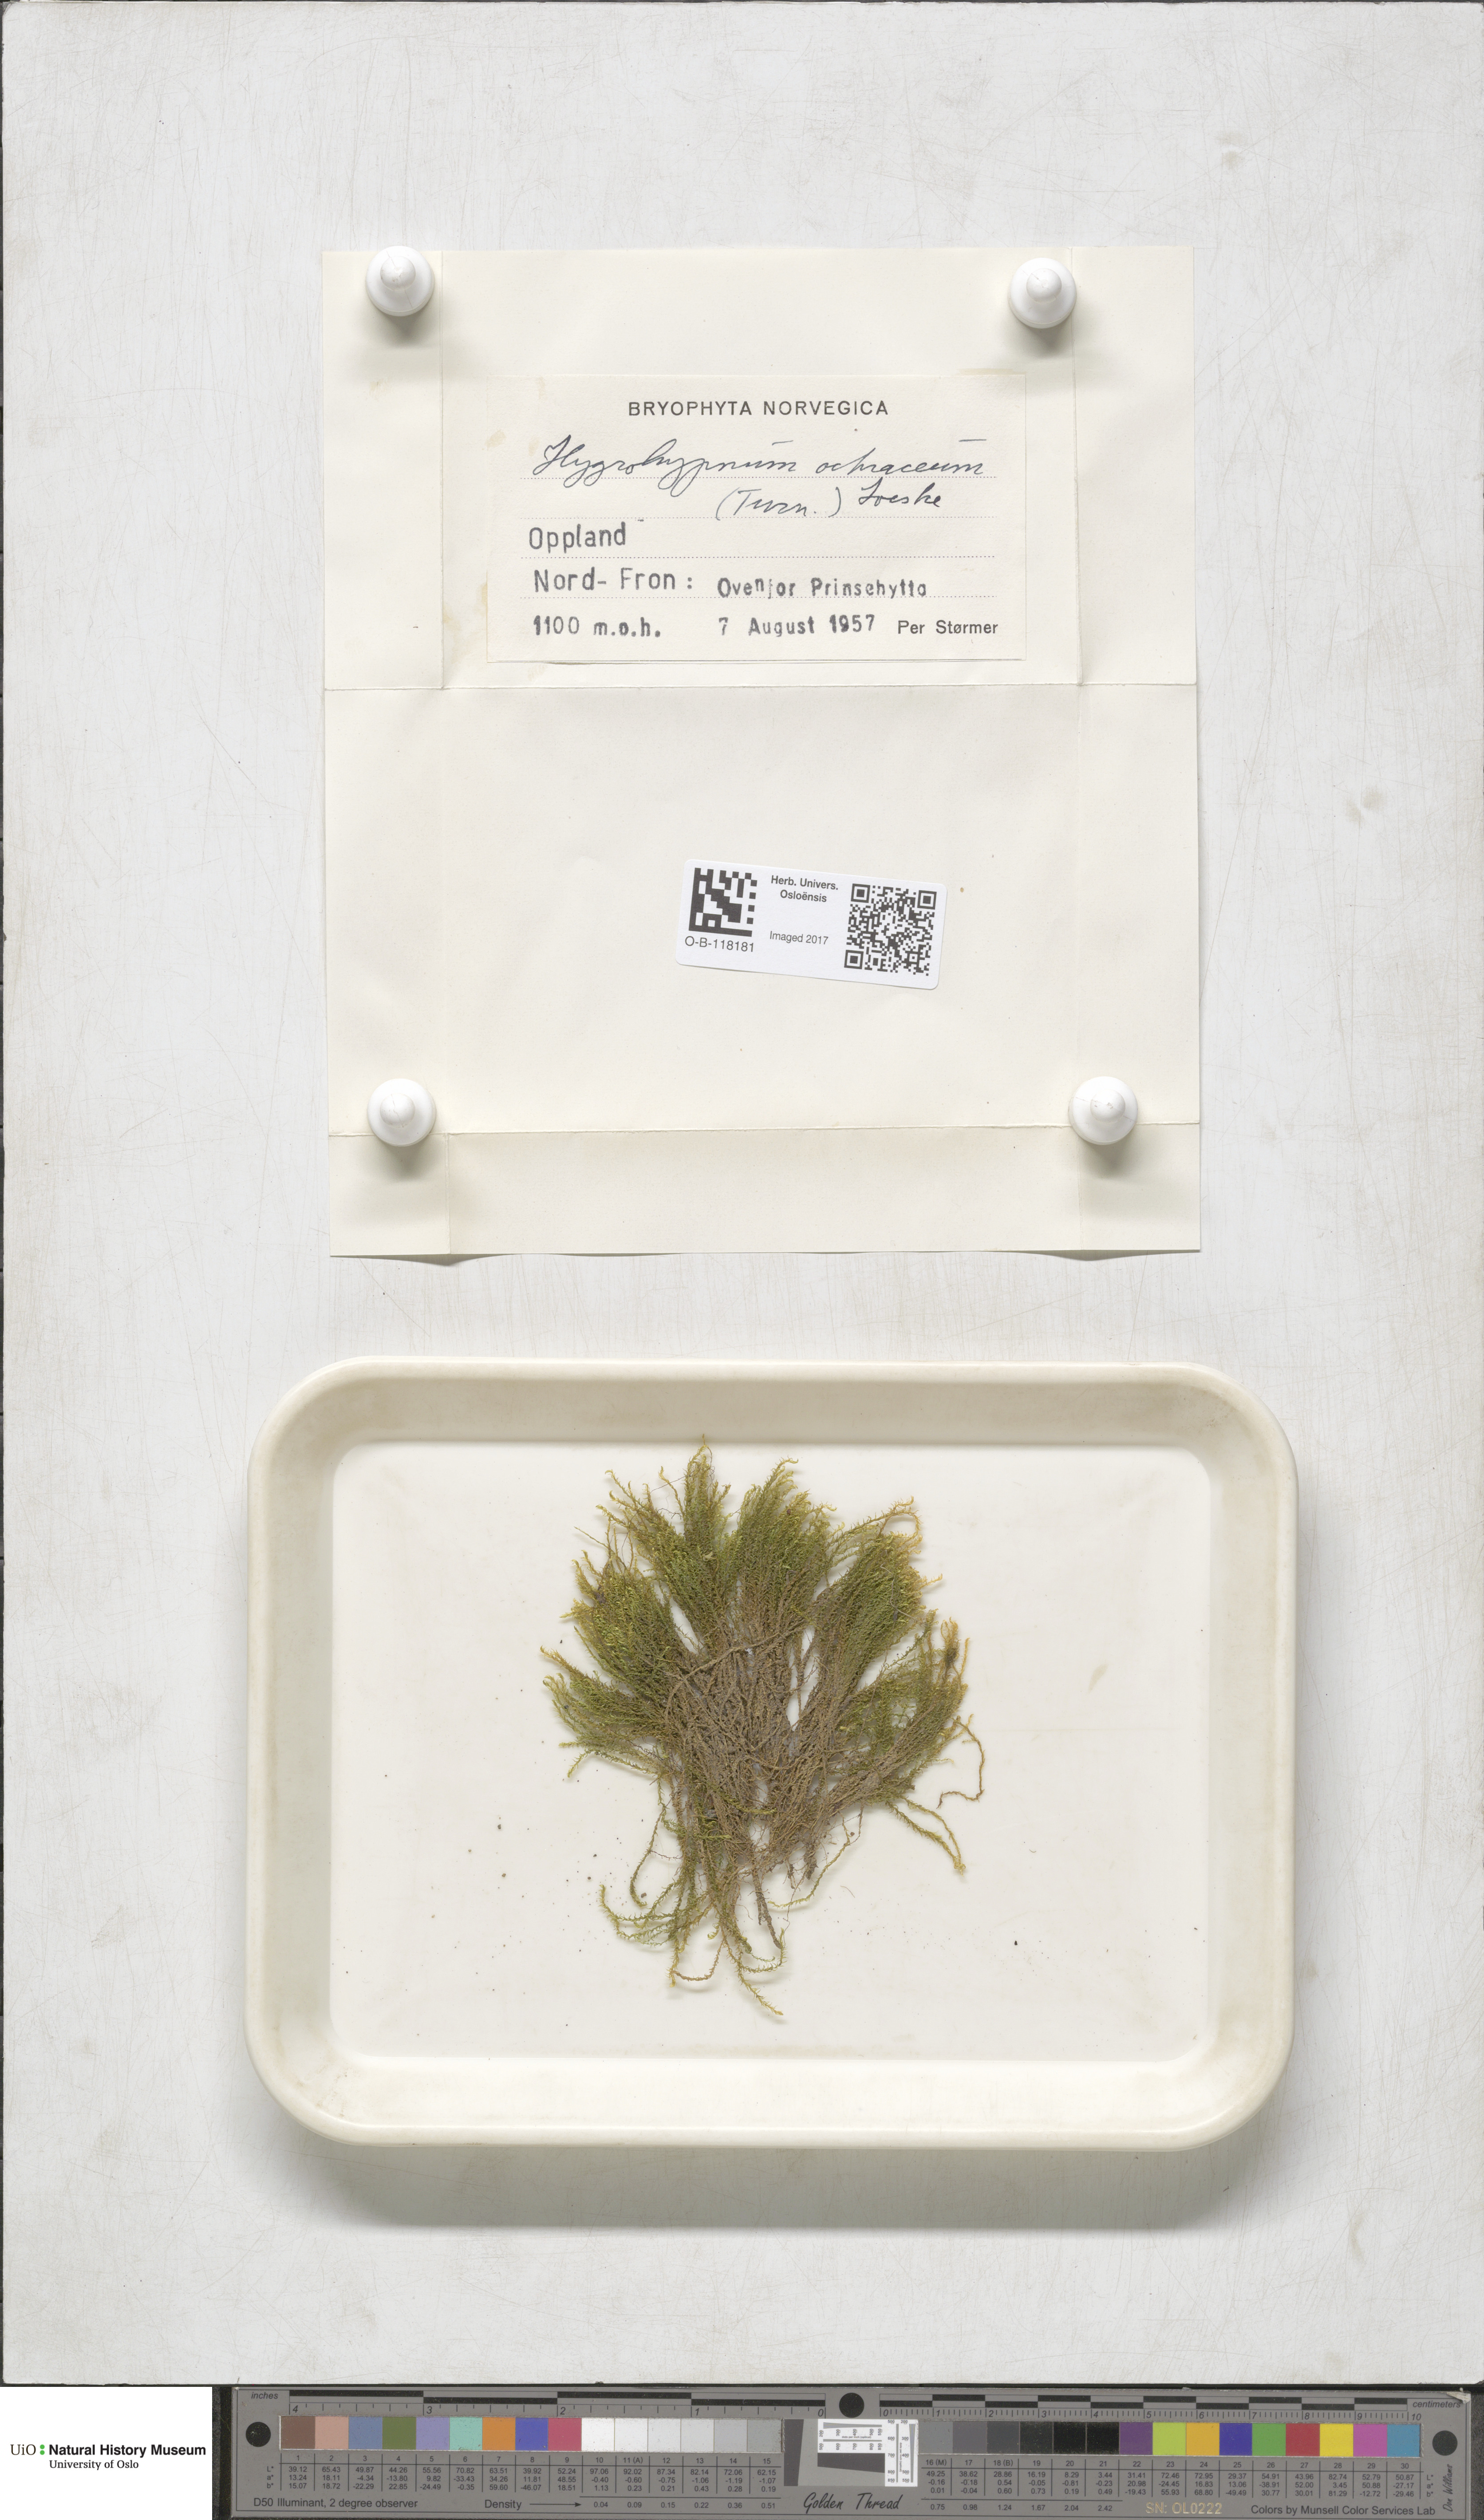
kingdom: Plantae
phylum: Bryophyta
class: Bryopsida
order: Hypnales
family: Scorpidiaceae
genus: Hygrohypnella
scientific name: Hygrohypnella ochracea
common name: Hygrohypnum moss
